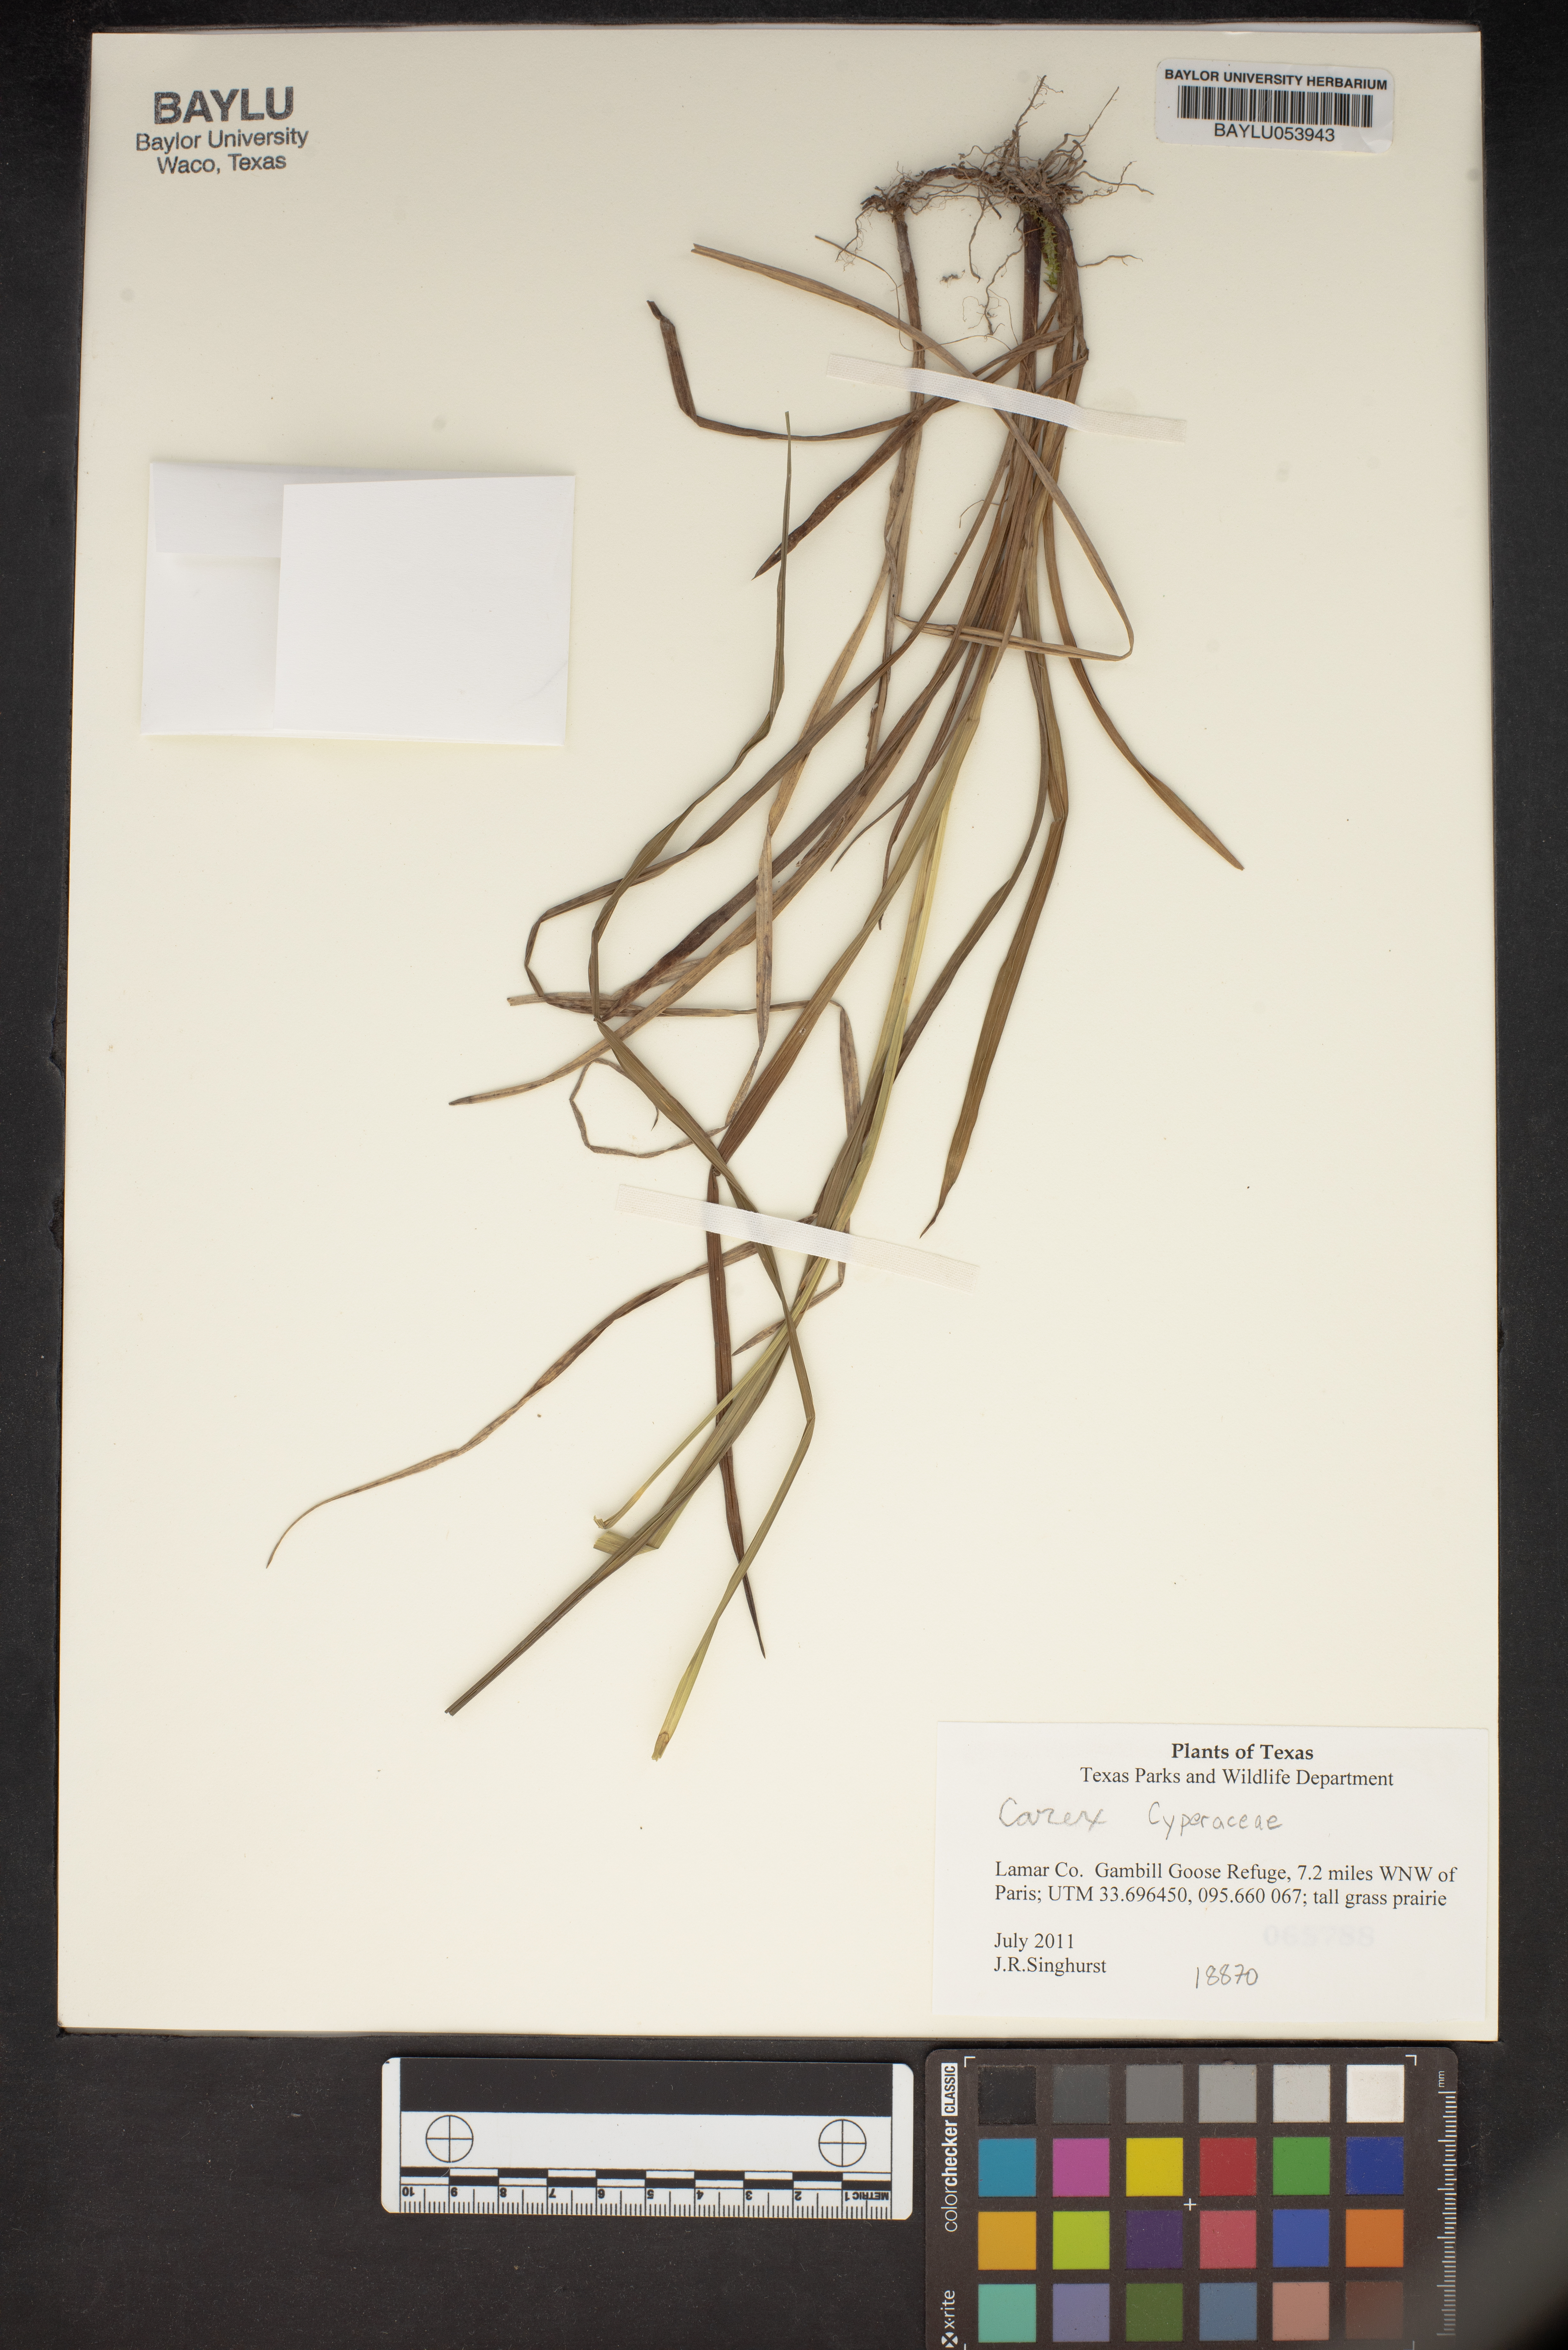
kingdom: Plantae
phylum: Tracheophyta
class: Liliopsida
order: Poales
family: Cyperaceae
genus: Carex
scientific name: Carex
